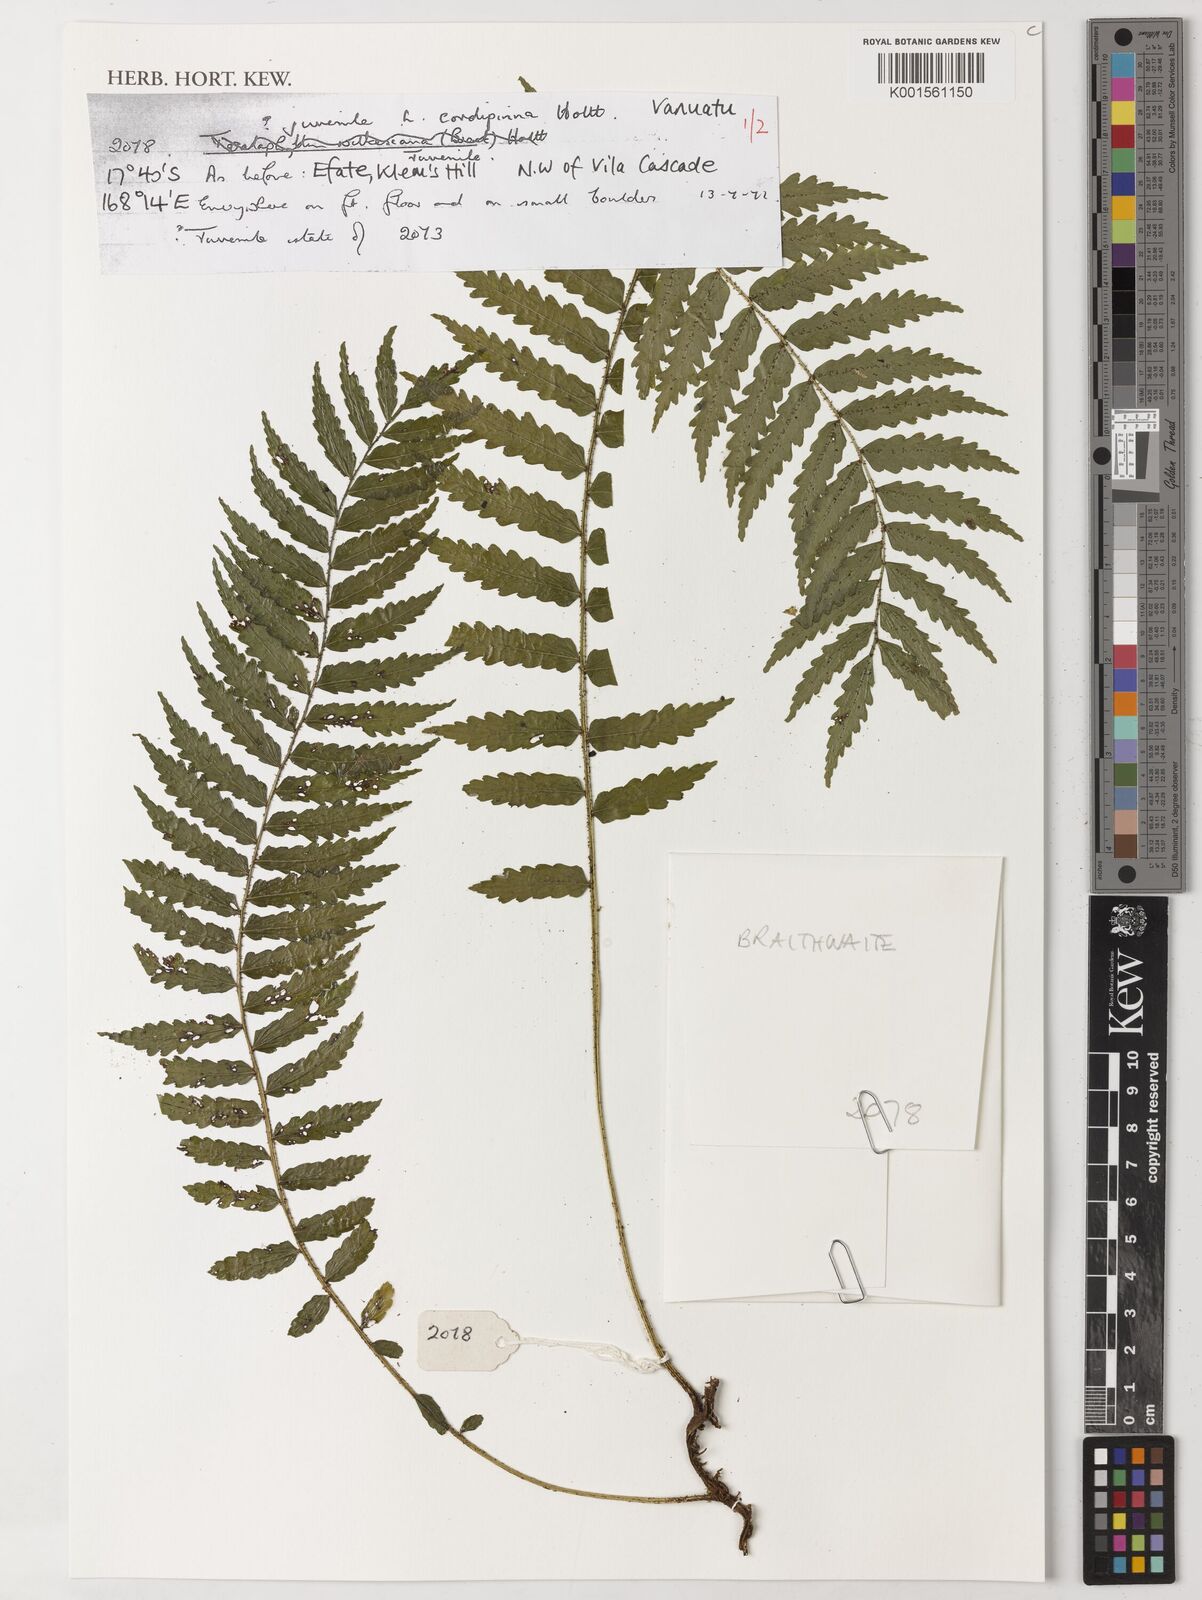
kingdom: Plantae
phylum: Tracheophyta
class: Polypodiopsida
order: Polypodiales
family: Dryopteridaceae
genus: Lomagramma
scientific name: Lomagramma cordipinna
